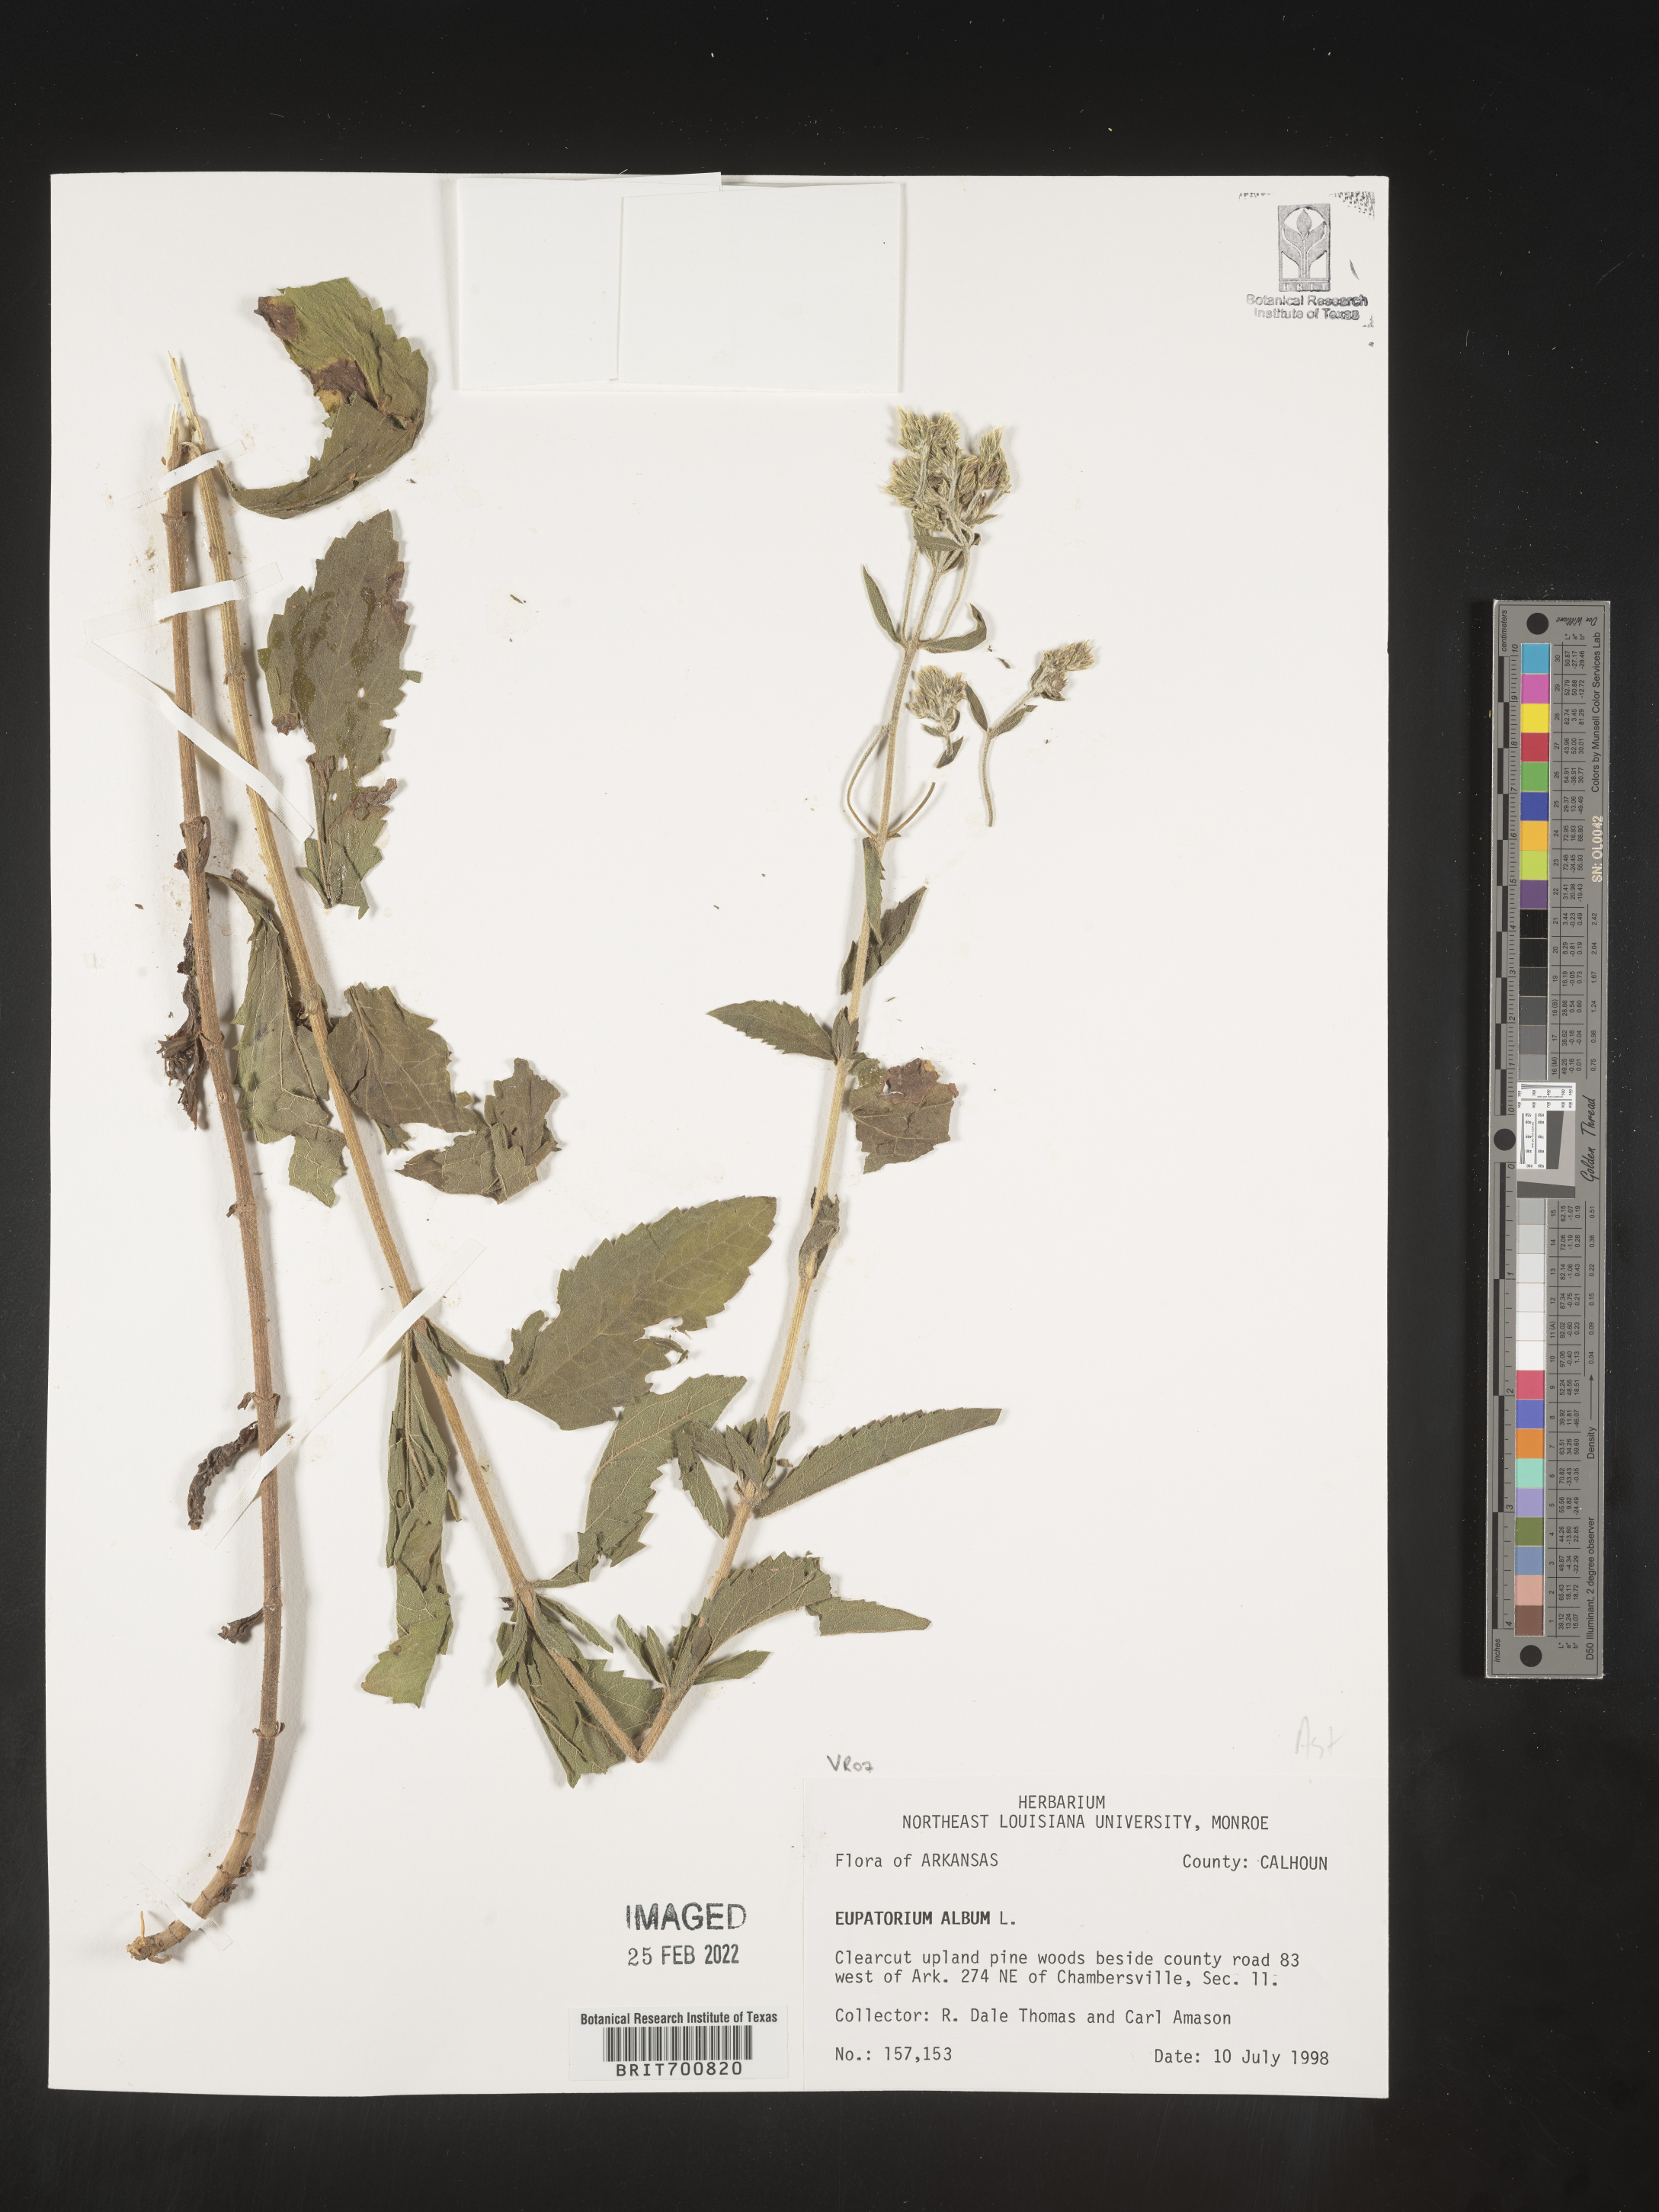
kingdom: Plantae
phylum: Tracheophyta
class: Magnoliopsida
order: Asterales
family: Asteraceae
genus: Eupatorium
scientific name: Eupatorium album
